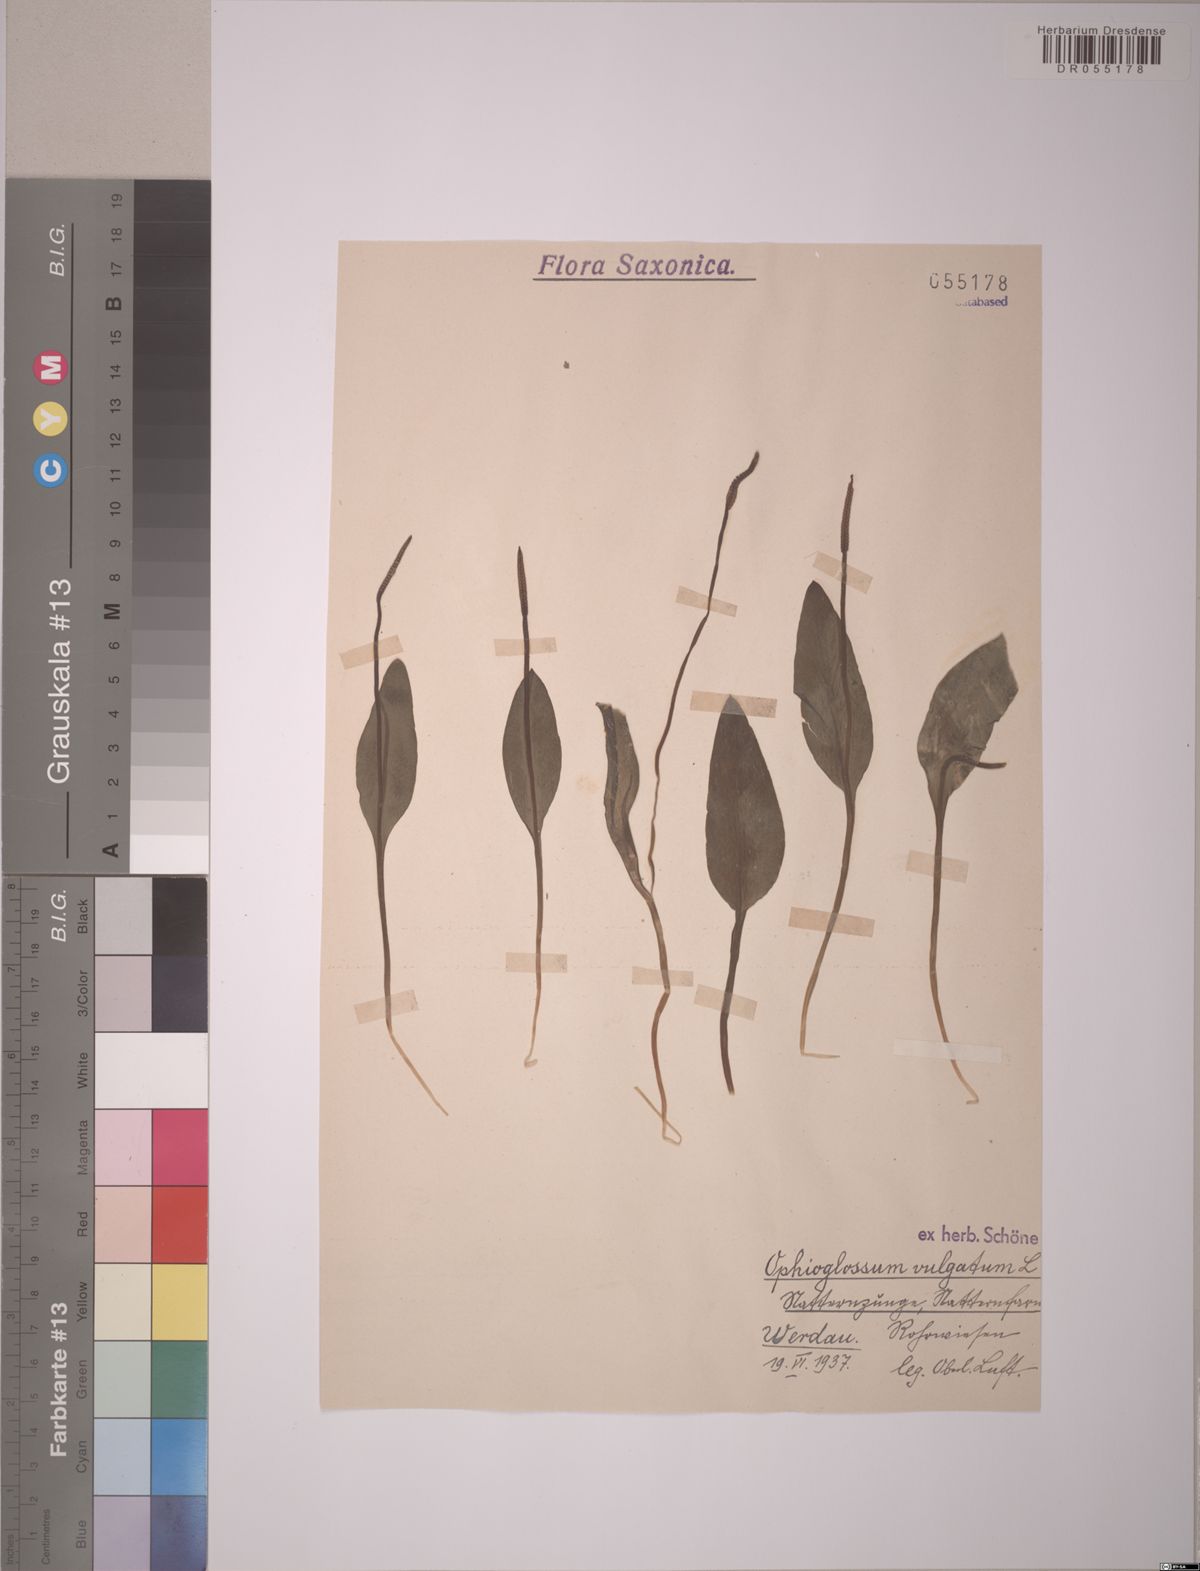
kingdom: Plantae
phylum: Tracheophyta
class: Polypodiopsida
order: Ophioglossales
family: Ophioglossaceae
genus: Ophioglossum
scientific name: Ophioglossum vulgatum
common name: Adder's-tongue
